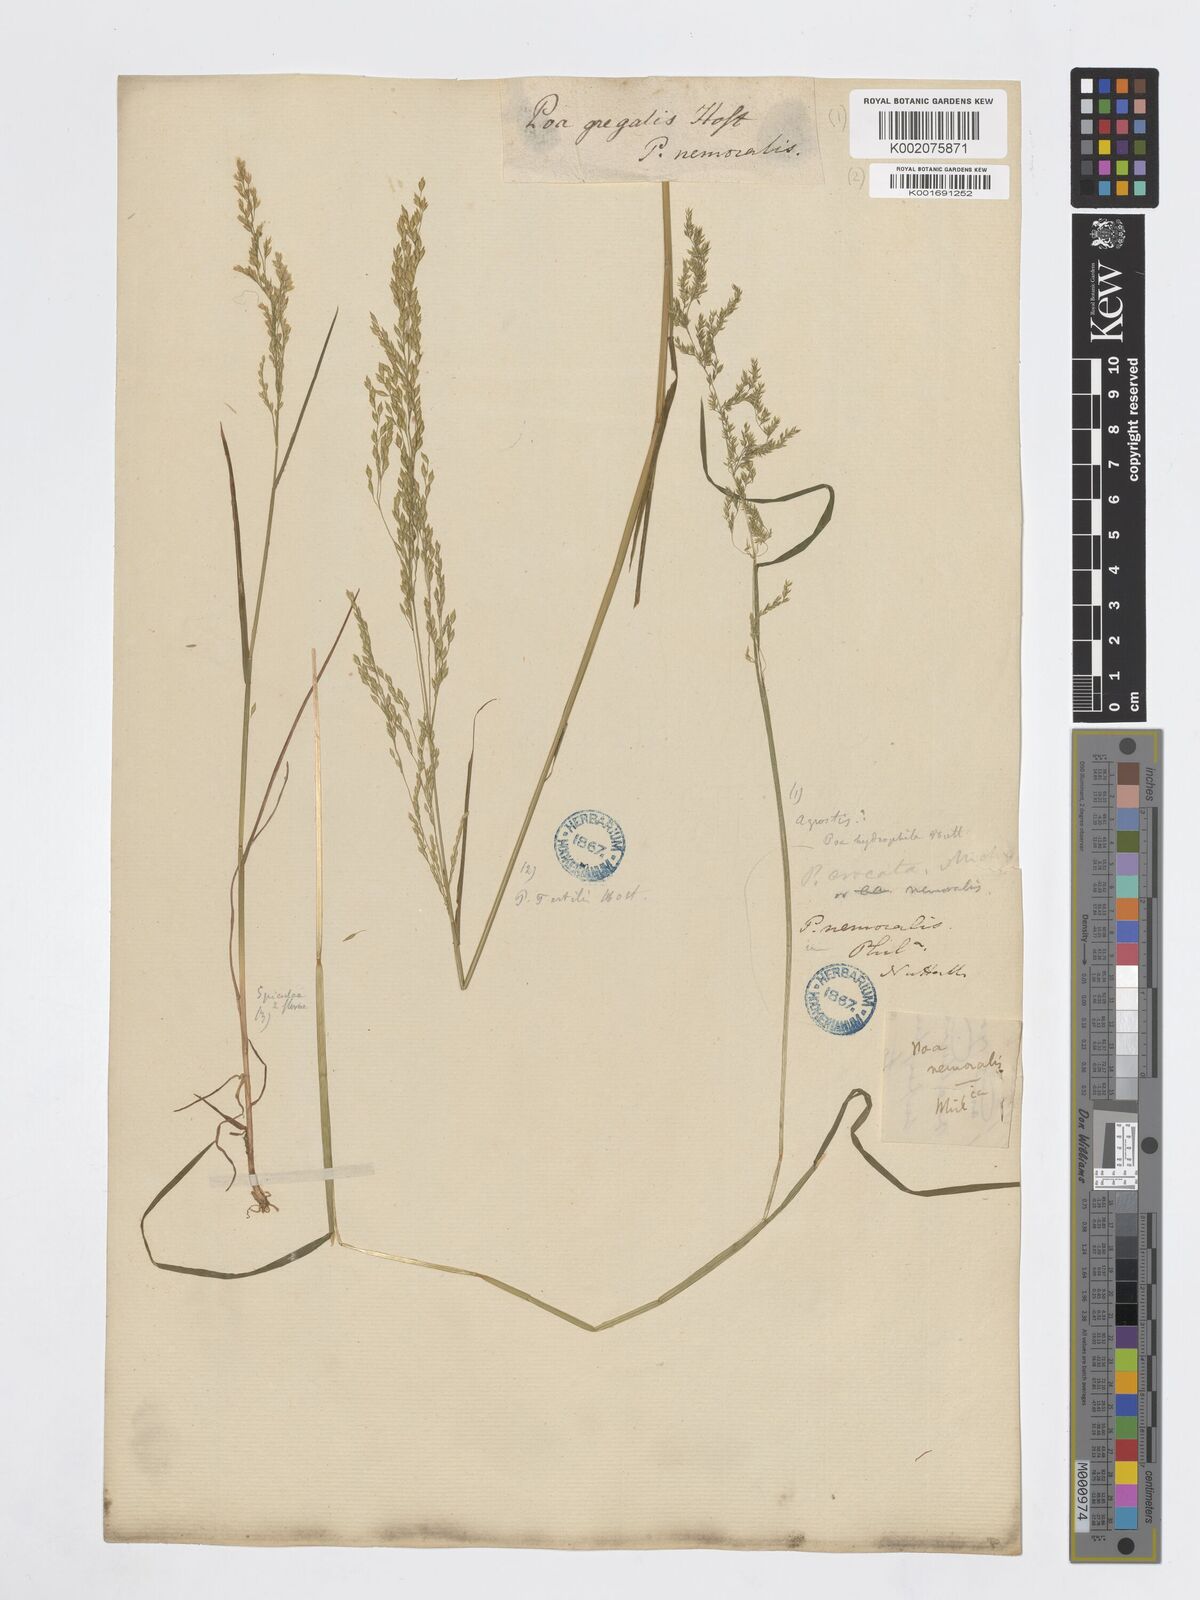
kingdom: Plantae
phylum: Tracheophyta
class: Liliopsida
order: Poales
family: Poaceae
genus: Poa
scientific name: Poa palustris
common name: Swamp meadow-grass
